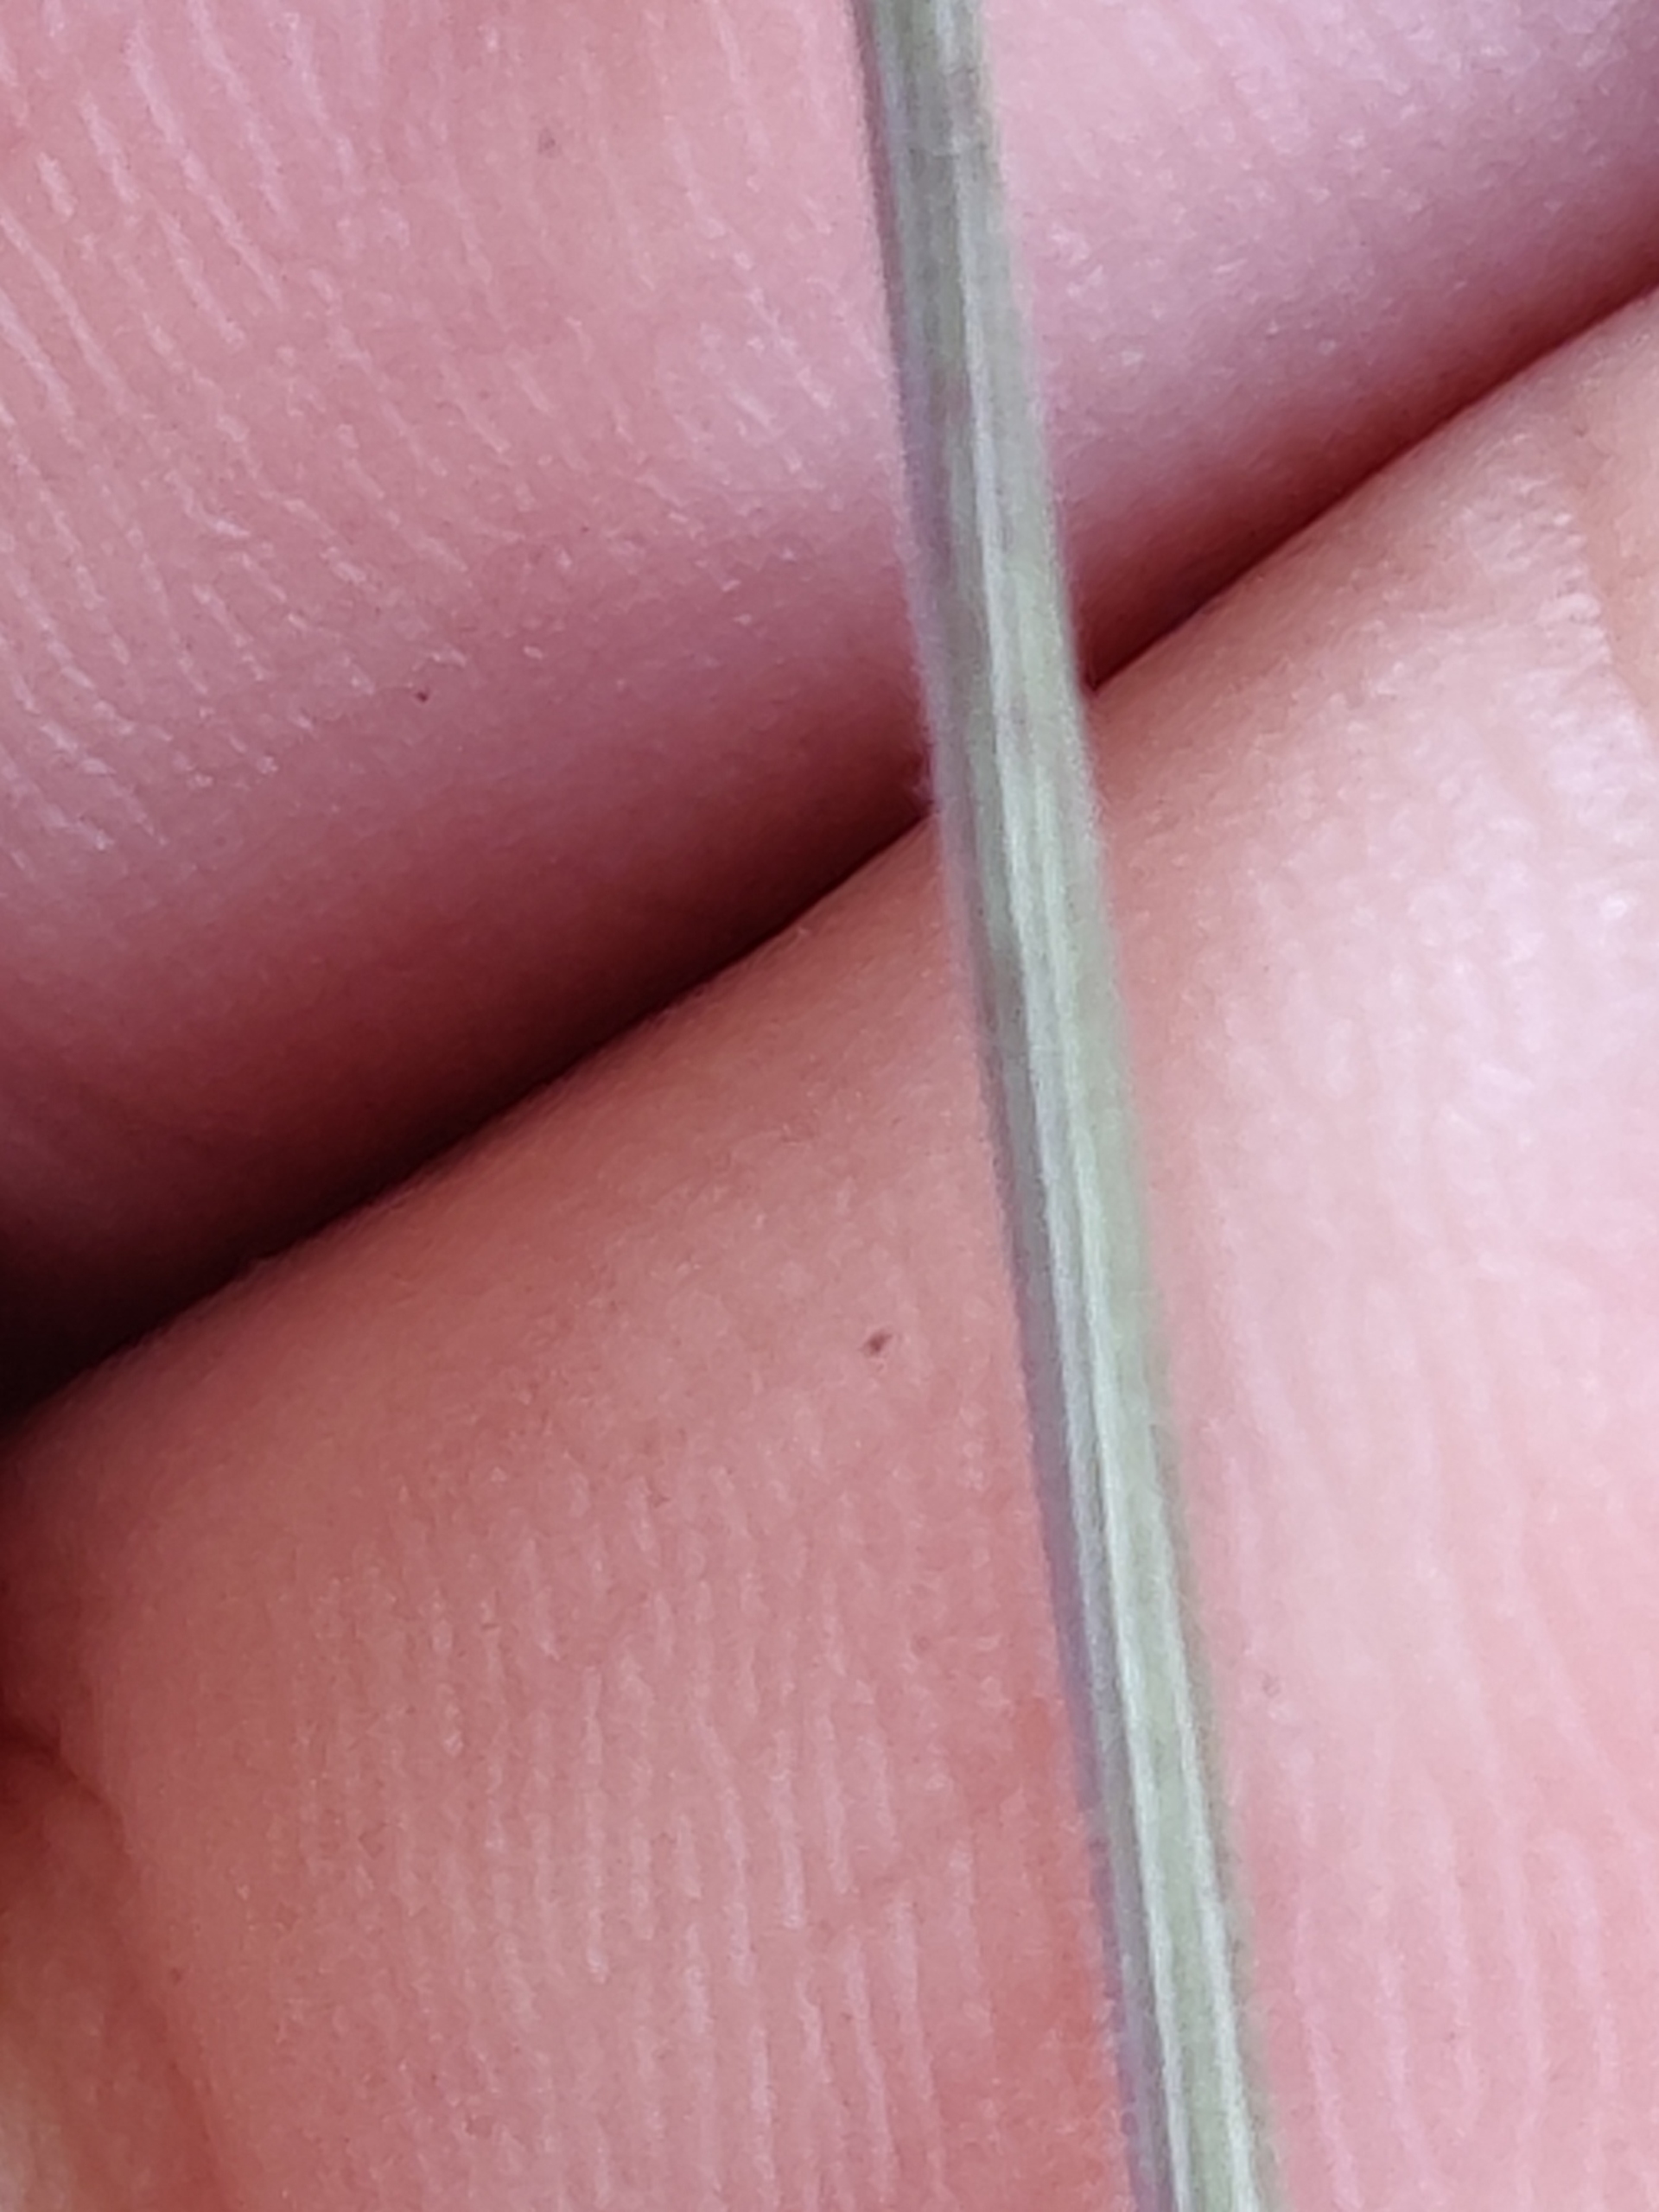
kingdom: Plantae
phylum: Tracheophyta
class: Liliopsida
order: Poales
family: Poaceae
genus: Holcus
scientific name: Holcus lanatus
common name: Fløjlsgræs
